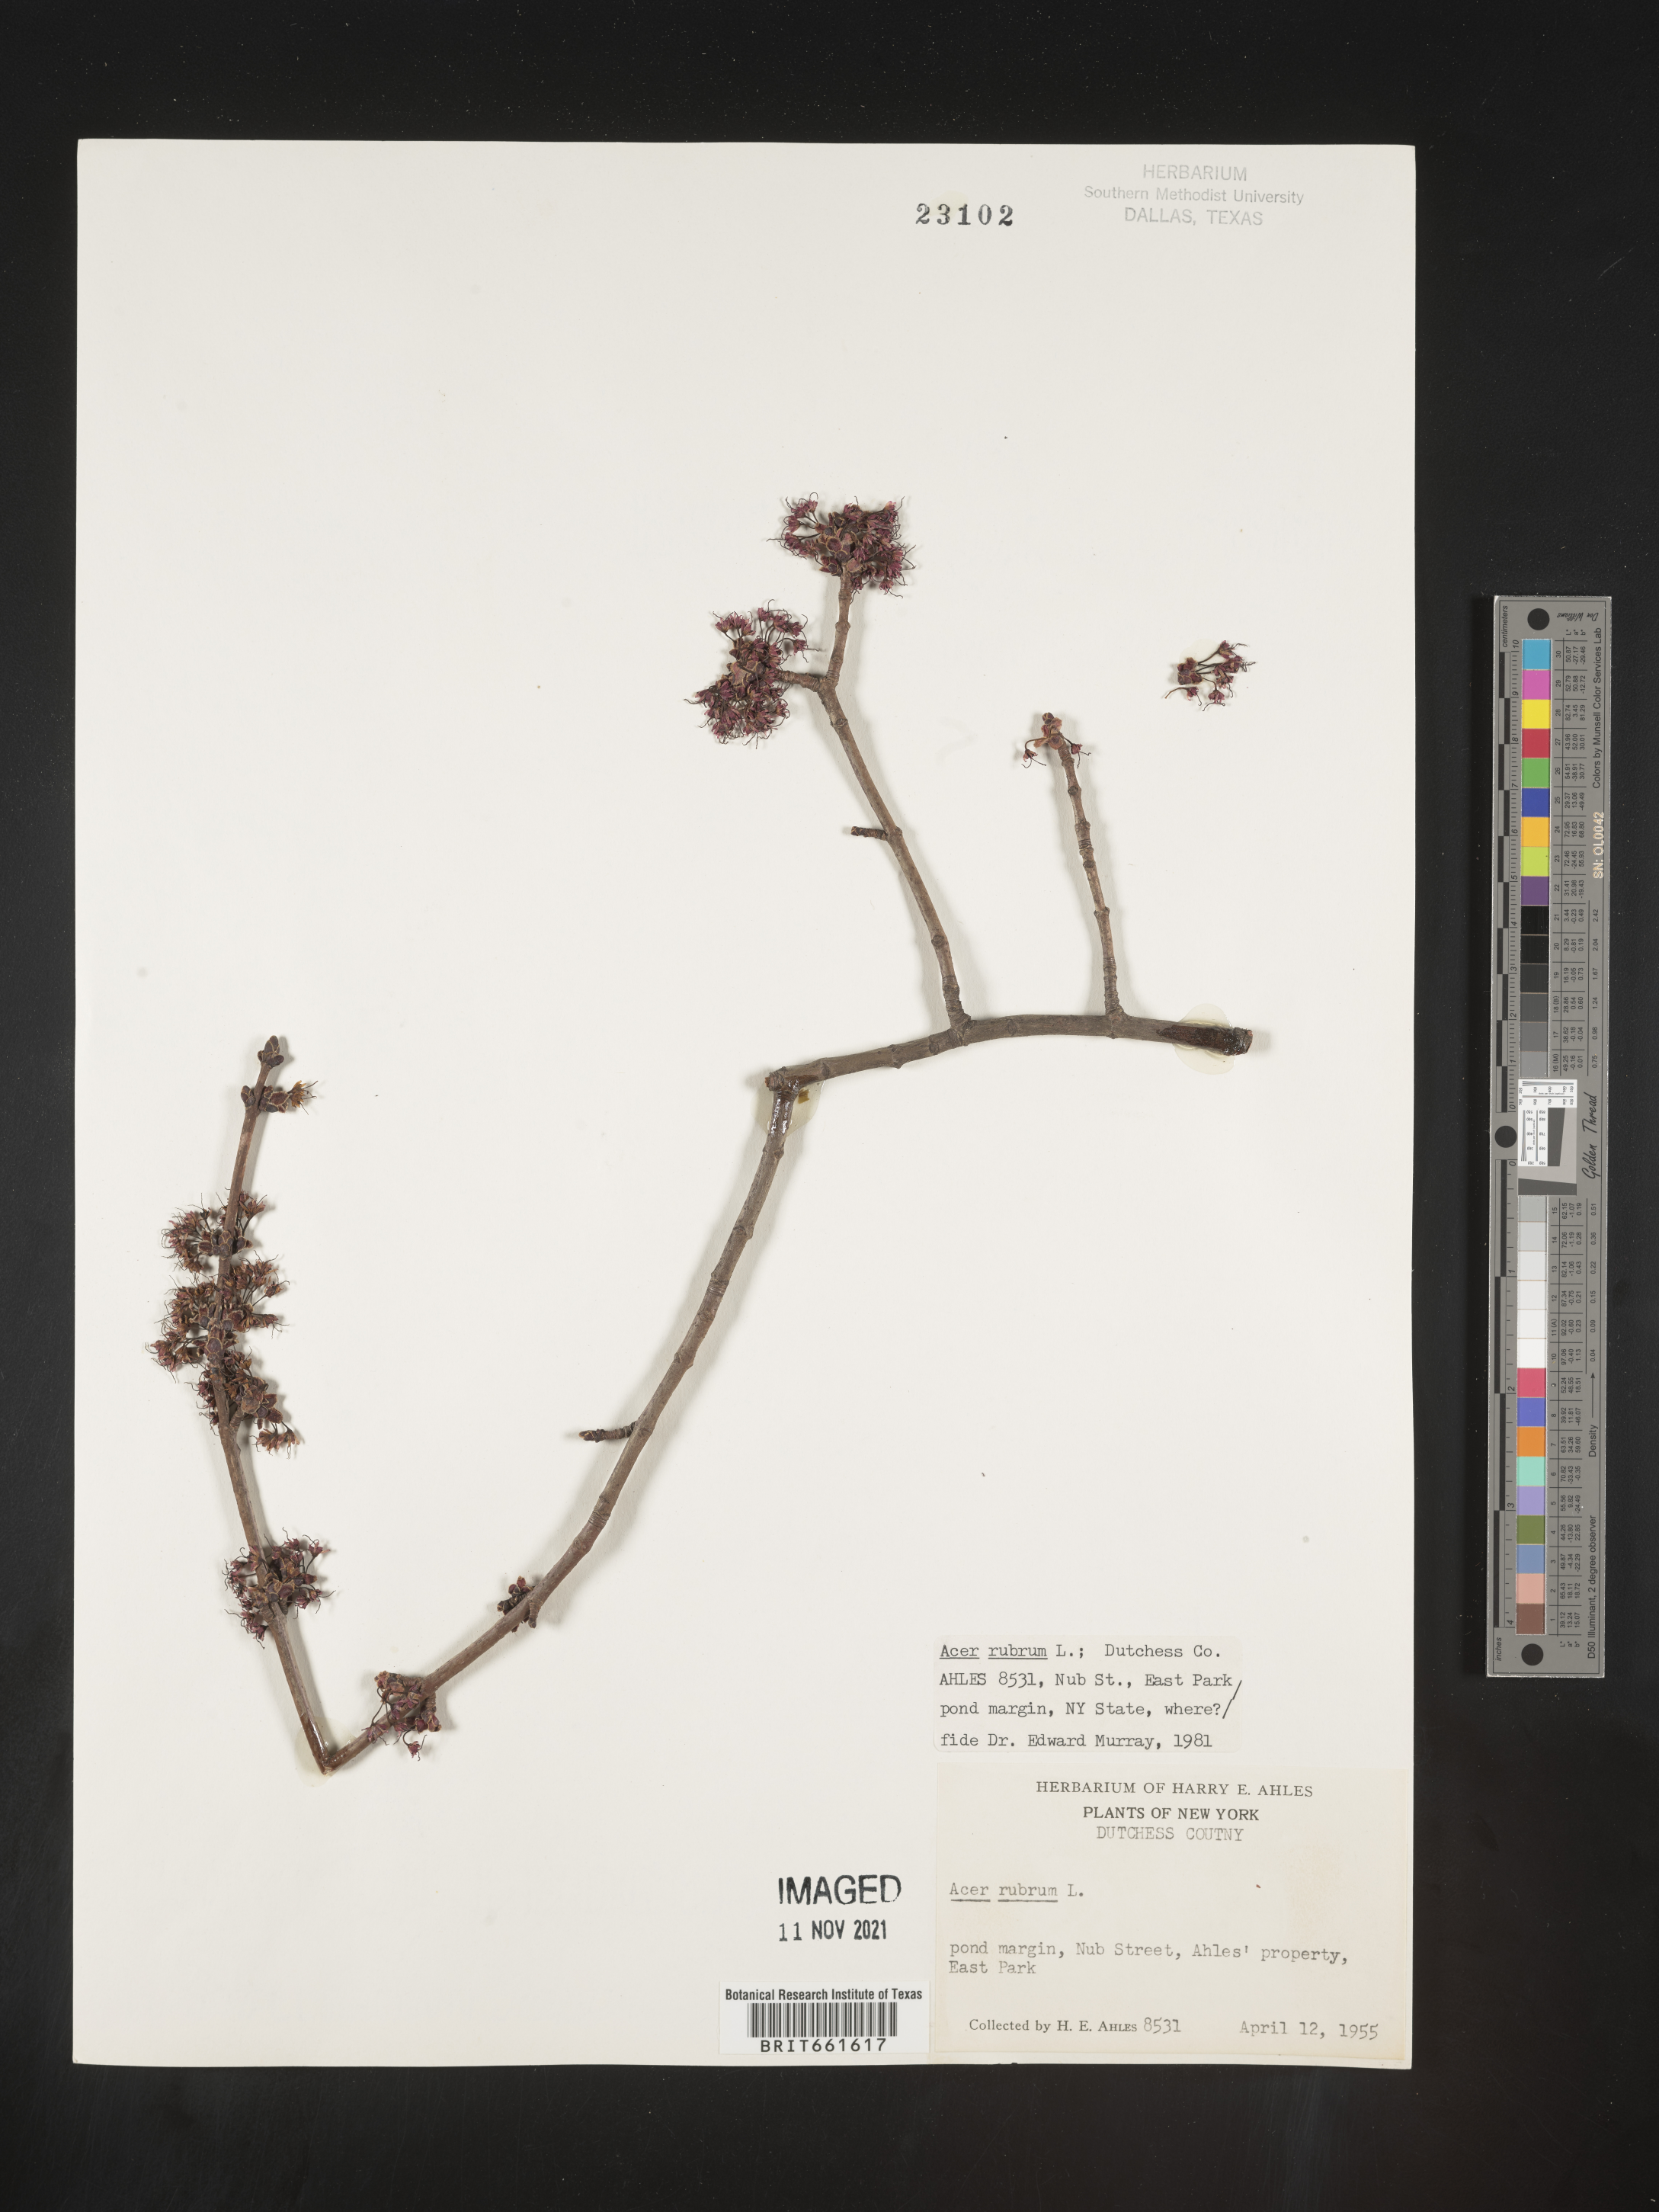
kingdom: Plantae
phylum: Tracheophyta
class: Magnoliopsida
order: Sapindales
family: Sapindaceae
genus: Acer
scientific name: Acer rubrum
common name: Red maple
